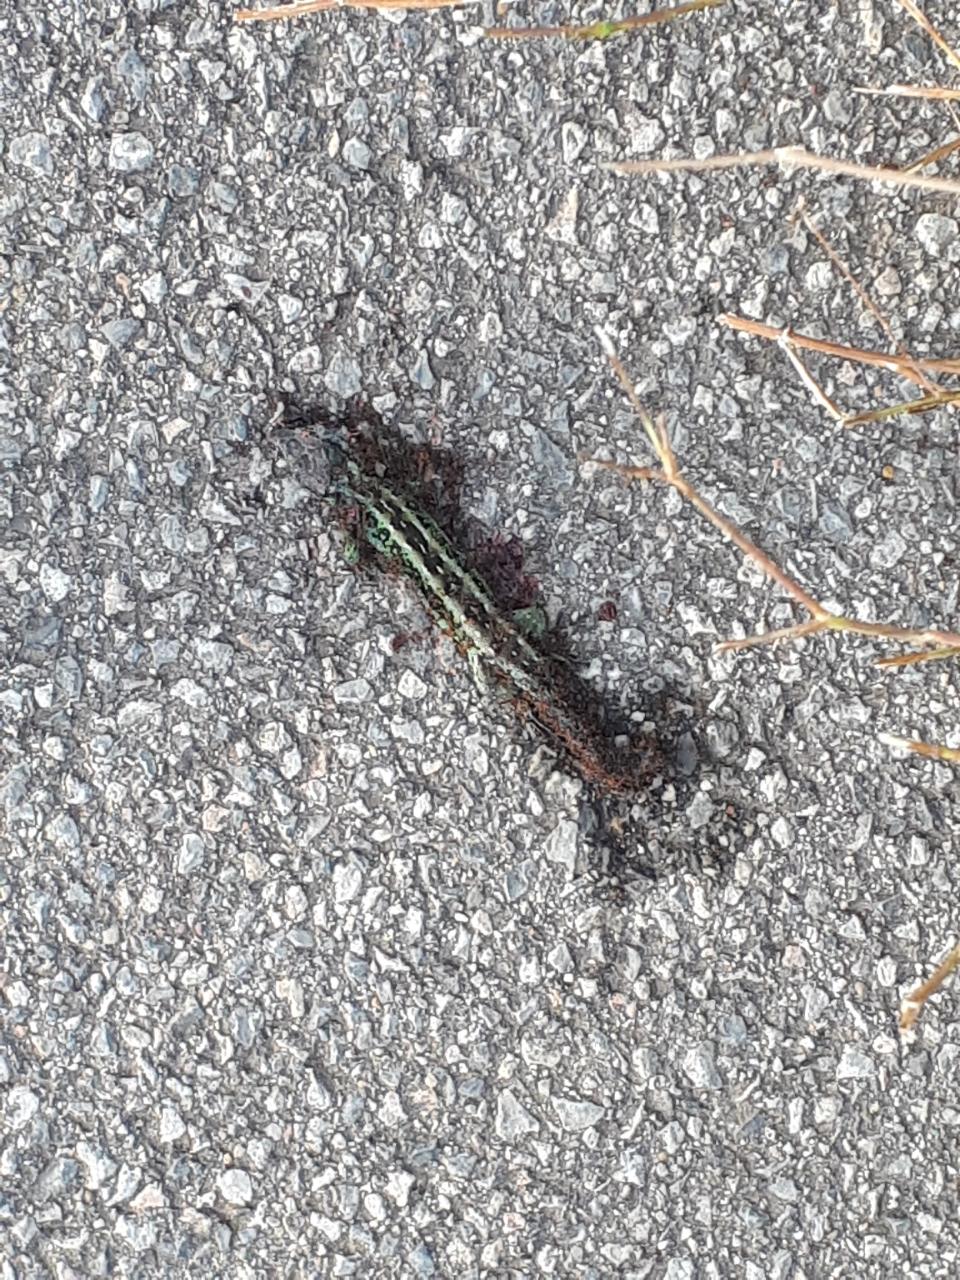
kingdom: Animalia
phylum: Chordata
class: Squamata
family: Lacertidae
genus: Lacerta
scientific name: Lacerta agilis
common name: Sand lizard
